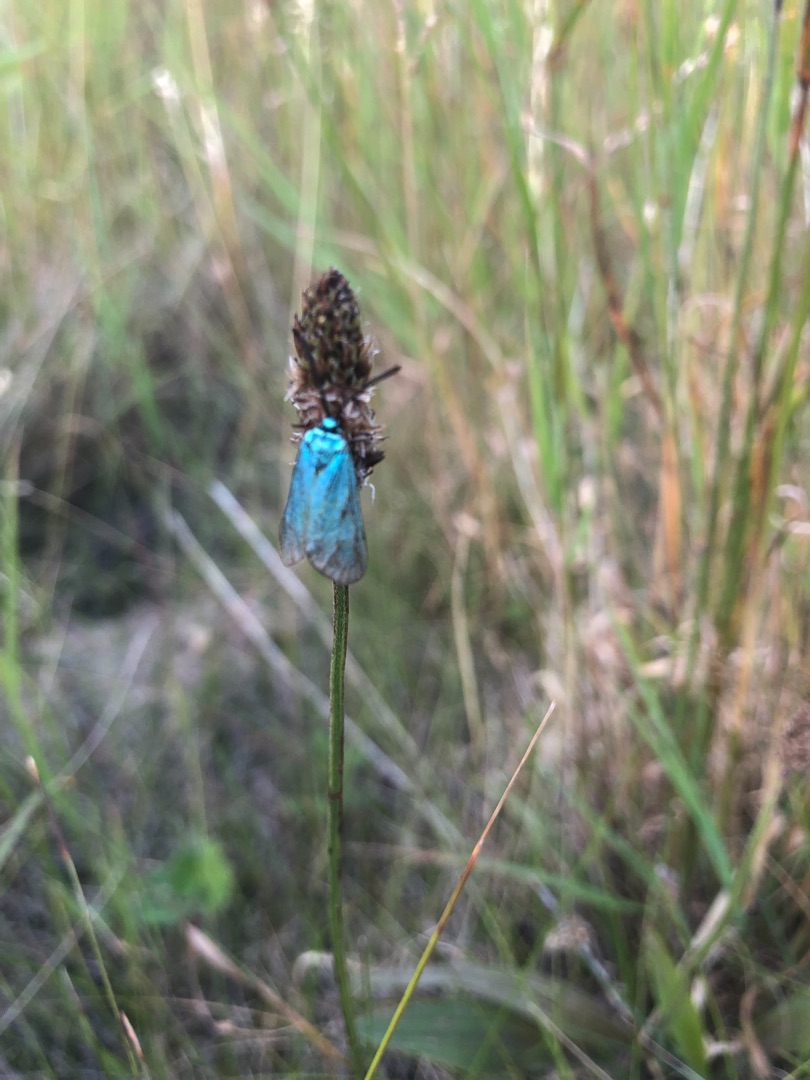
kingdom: Animalia
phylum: Arthropoda
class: Insecta
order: Lepidoptera
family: Zygaenidae
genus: Adscita
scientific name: Adscita statices
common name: Metalvinge
